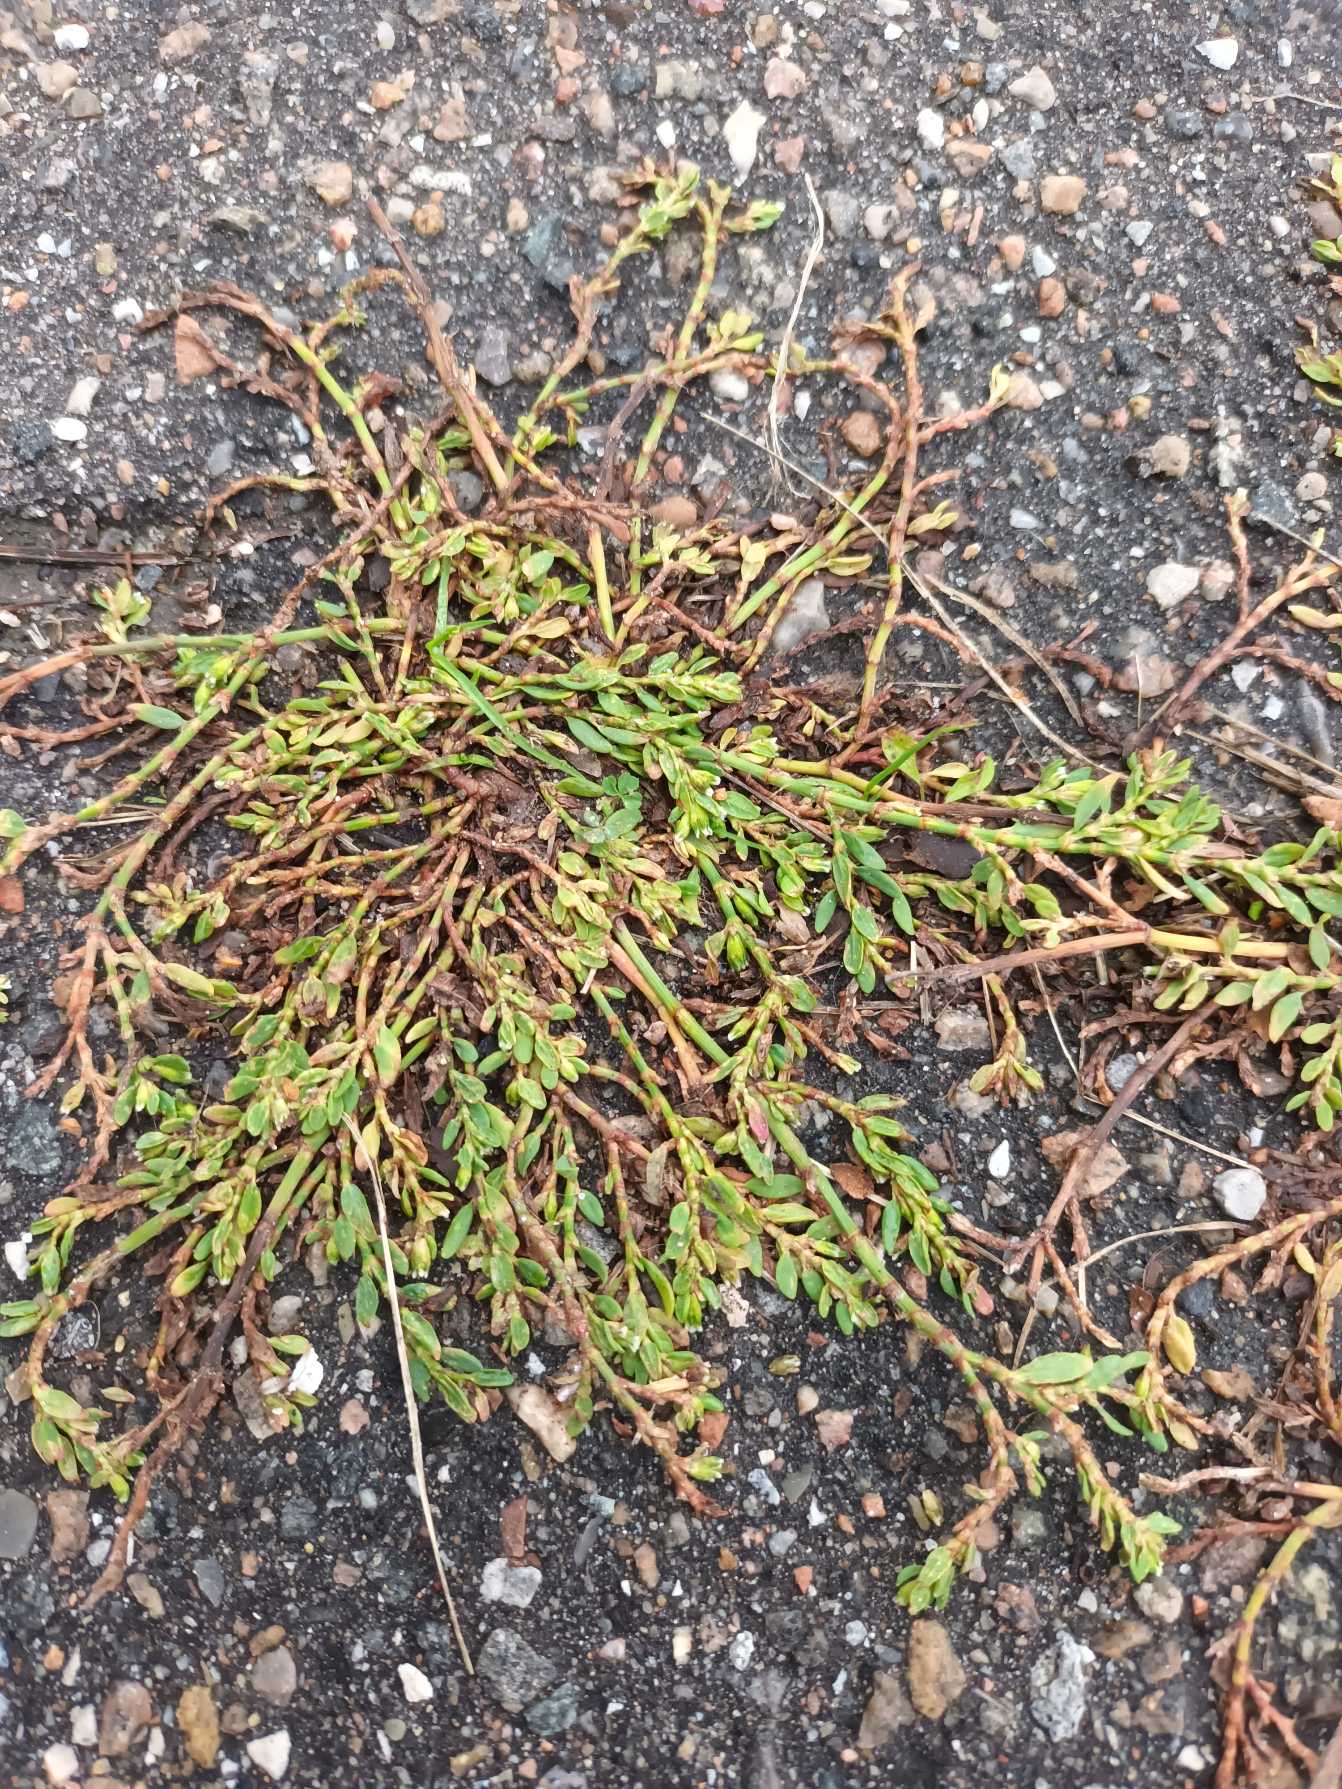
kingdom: Plantae
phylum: Tracheophyta
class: Magnoliopsida
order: Caryophyllales
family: Polygonaceae
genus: Polygonum
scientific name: Polygonum arenastrum
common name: Liggende vej-pileurt
